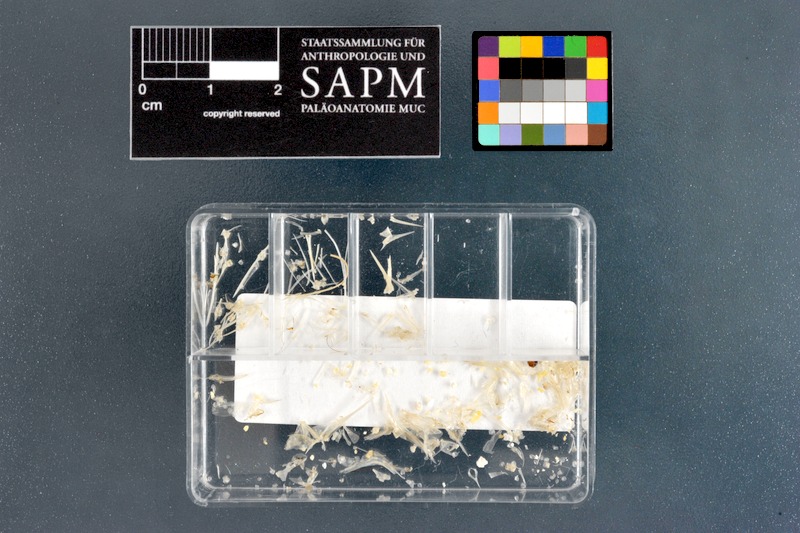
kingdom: Animalia
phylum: Chordata
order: Perciformes
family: Monodactylidae
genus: Monodactylus
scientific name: Monodactylus falciformis
